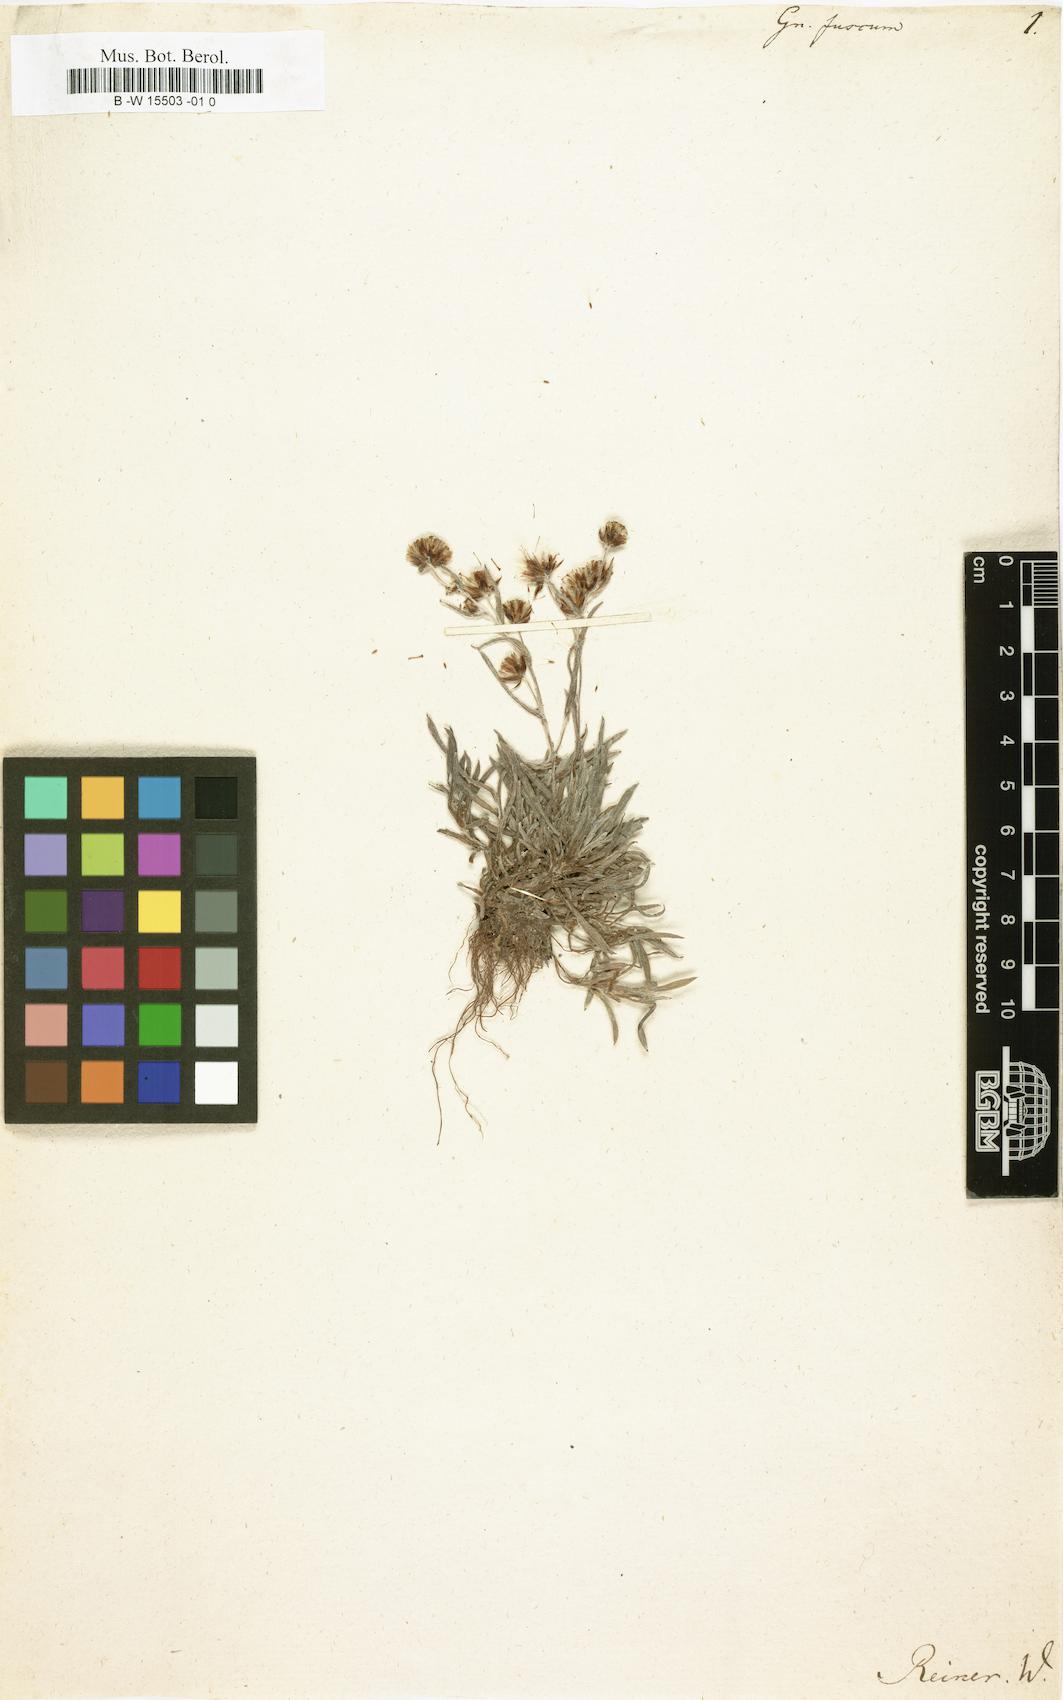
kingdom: Plantae
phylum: Tracheophyta
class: Magnoliopsida
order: Asterales
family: Asteraceae
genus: Omalotheca
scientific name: Omalotheca
